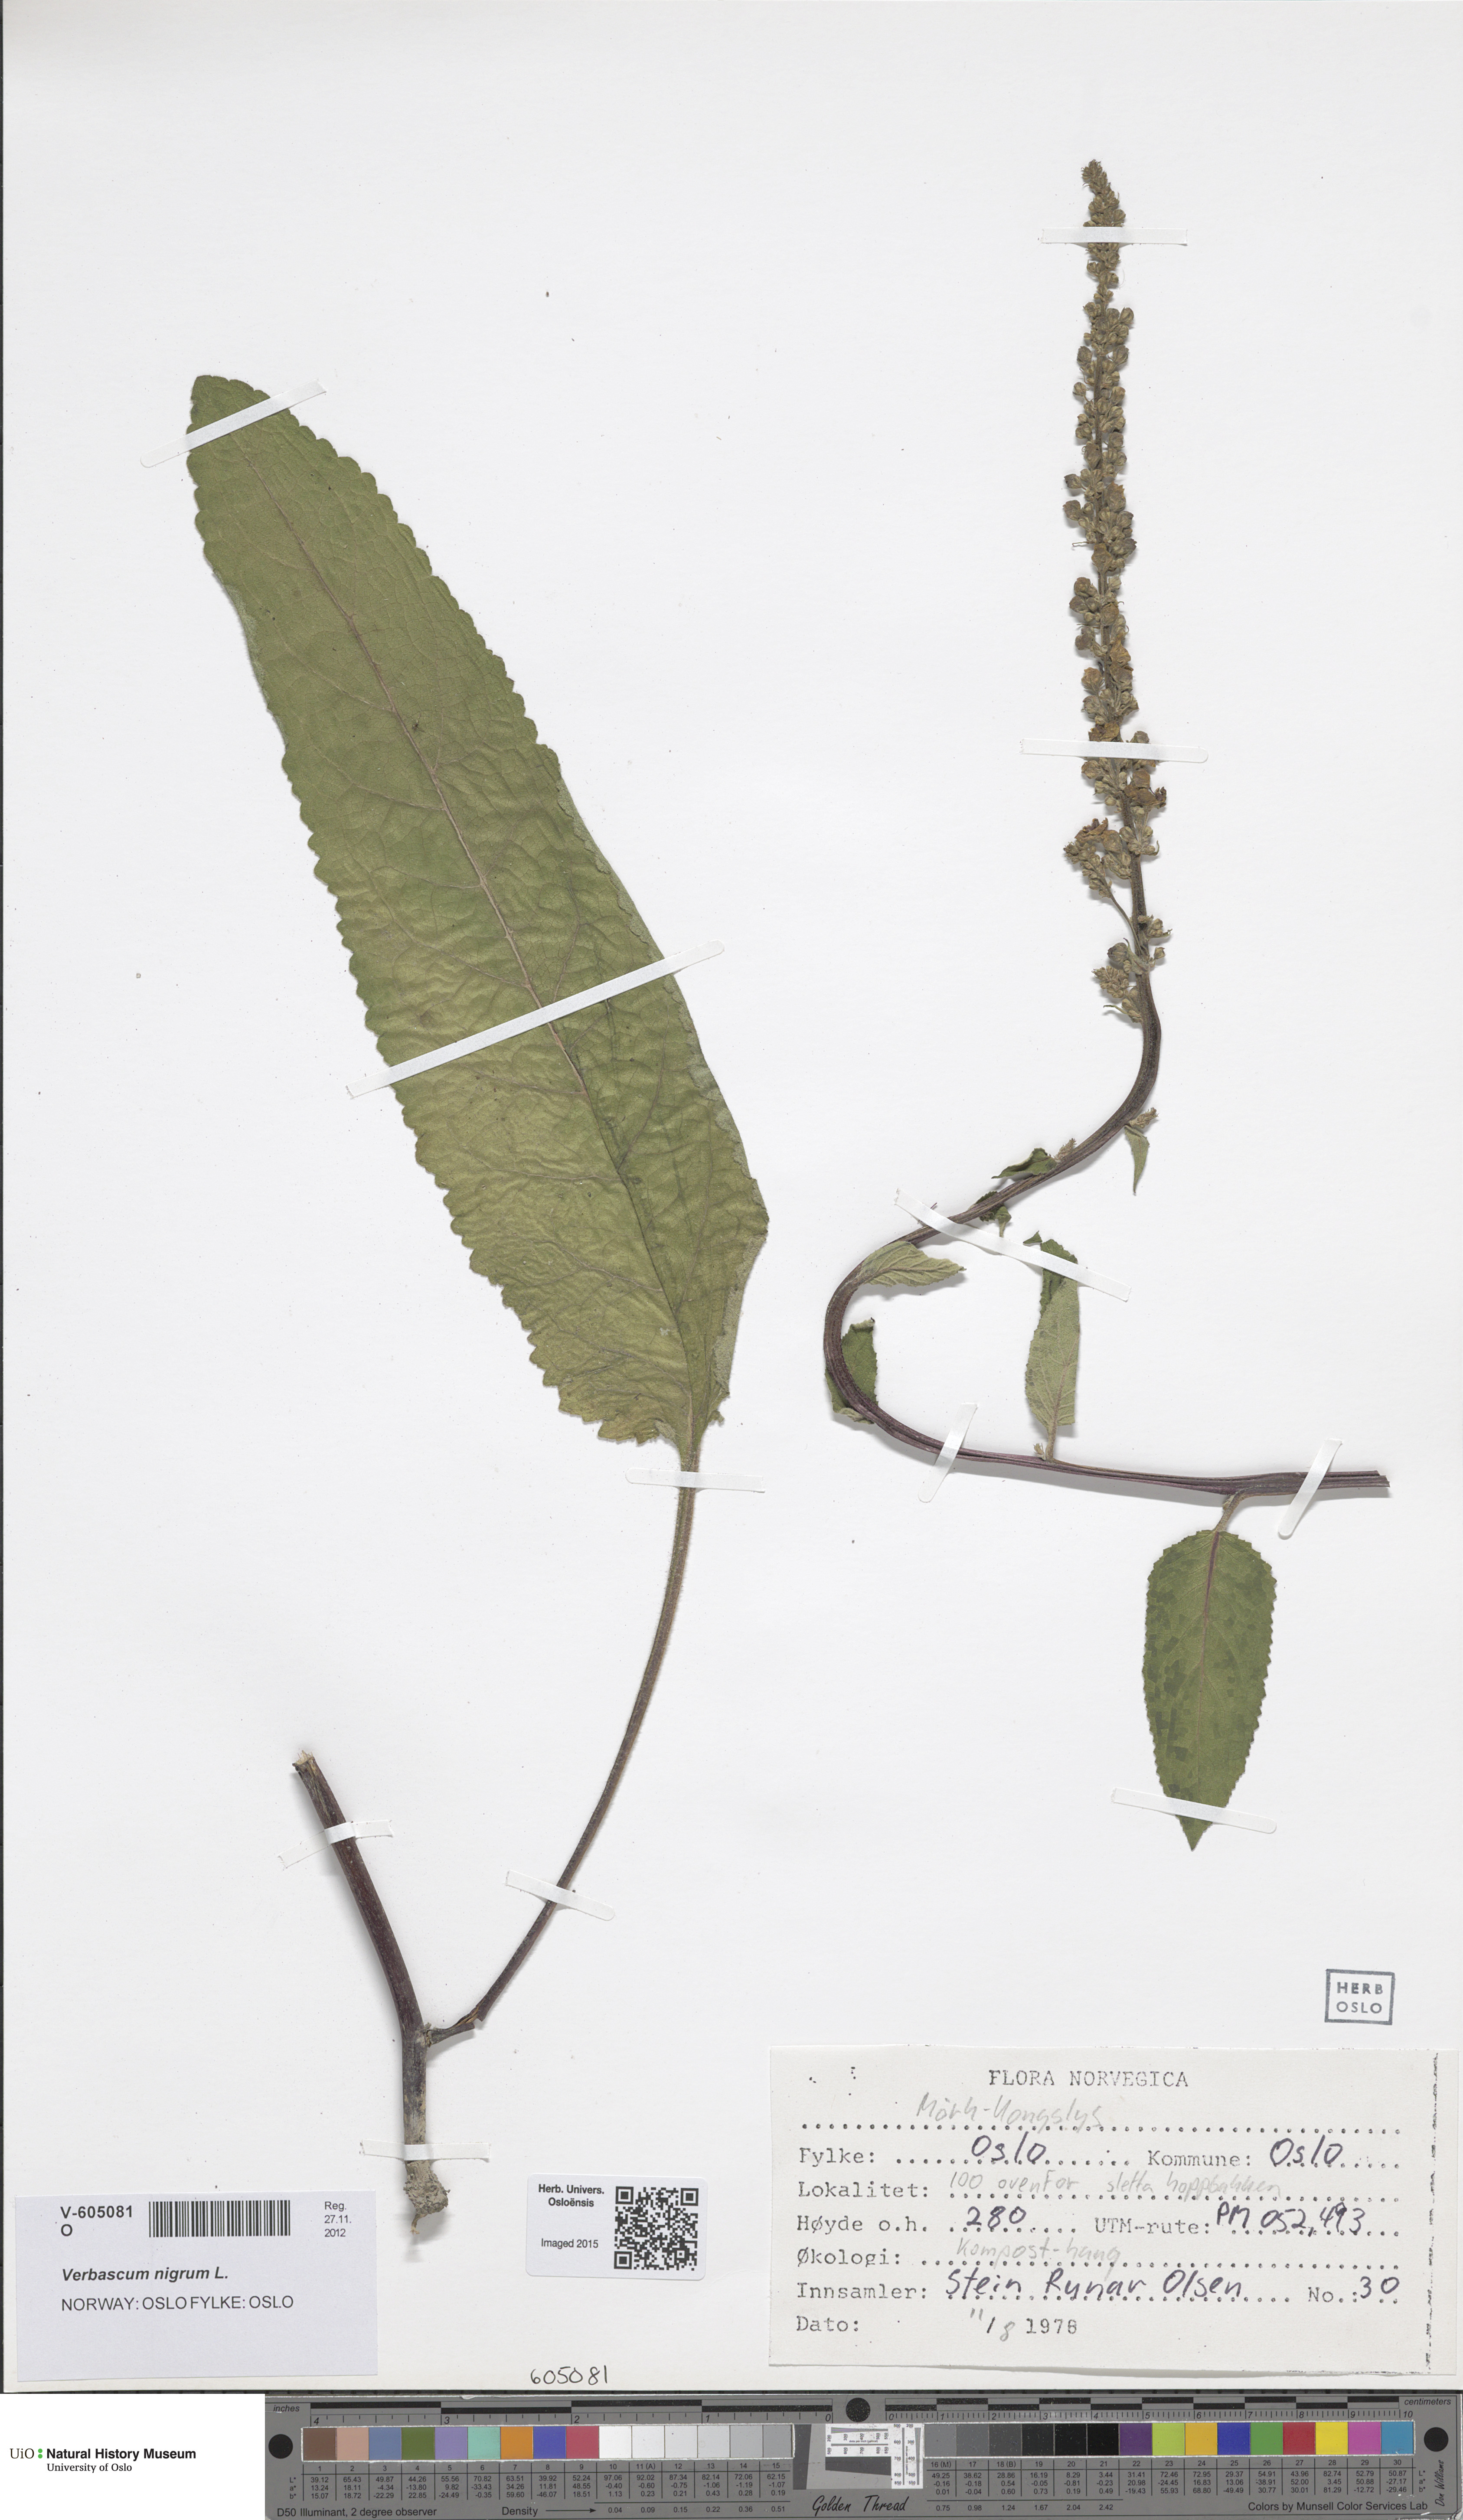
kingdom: Plantae
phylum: Tracheophyta
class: Magnoliopsida
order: Lamiales
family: Scrophulariaceae
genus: Verbascum
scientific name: Verbascum nigrum
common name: Dark mullein
